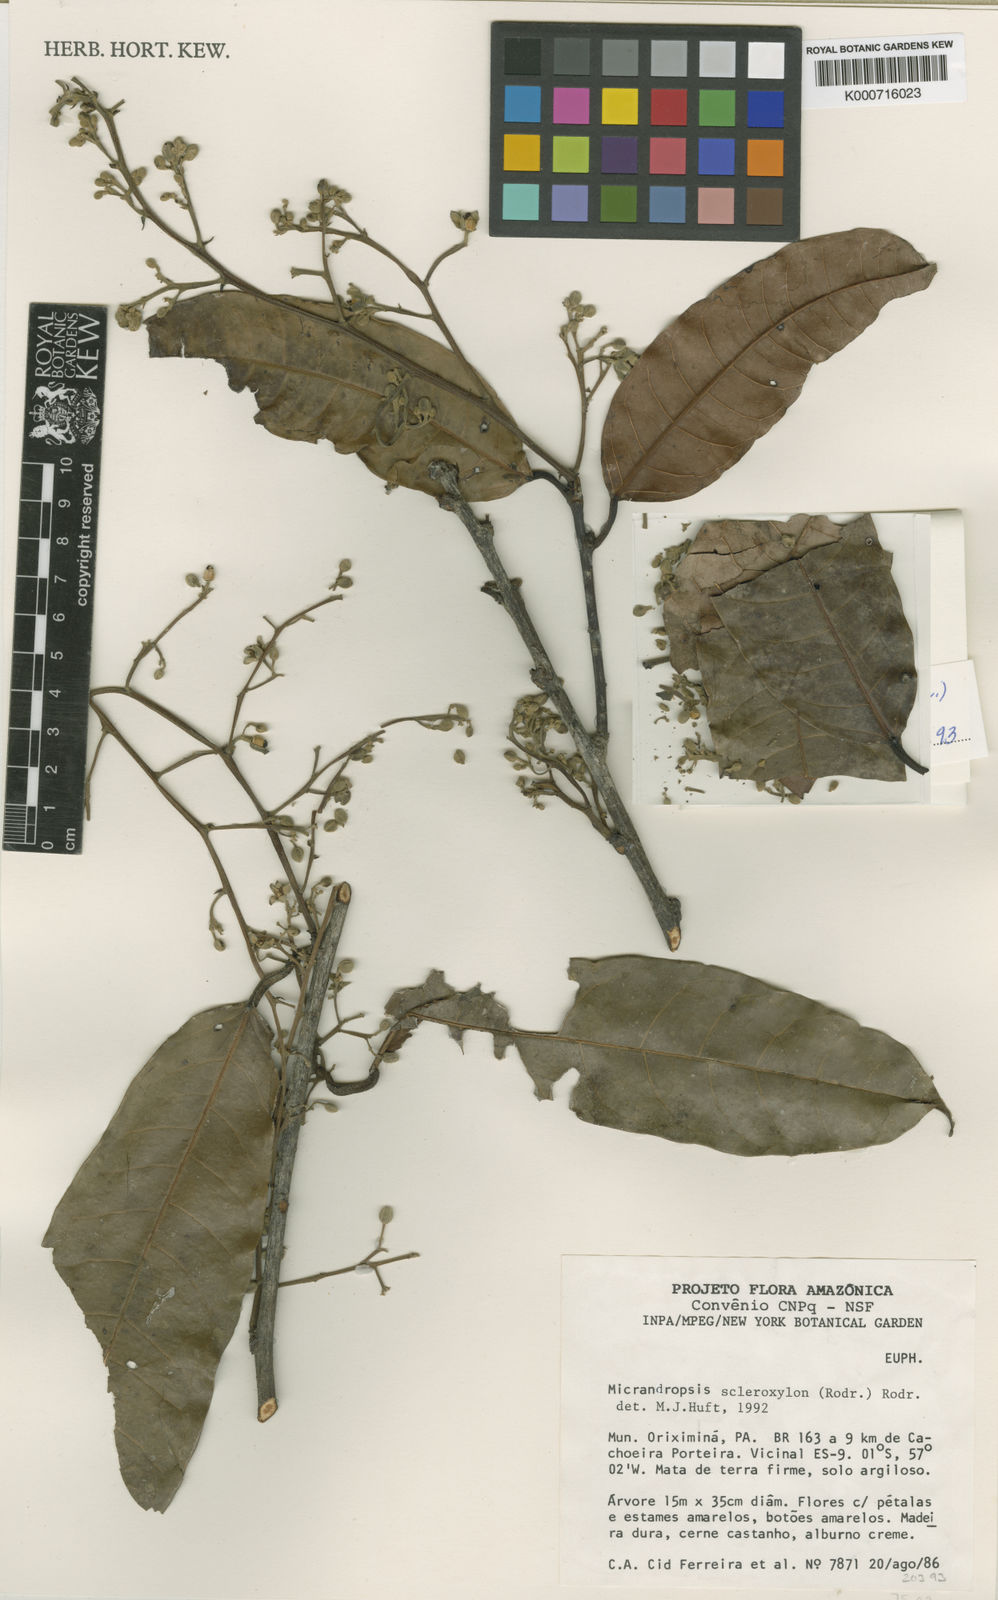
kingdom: Plantae
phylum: Tracheophyta
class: Magnoliopsida
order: Malpighiales
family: Euphorbiaceae
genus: Micrandropsis
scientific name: Micrandropsis scleroxylon
